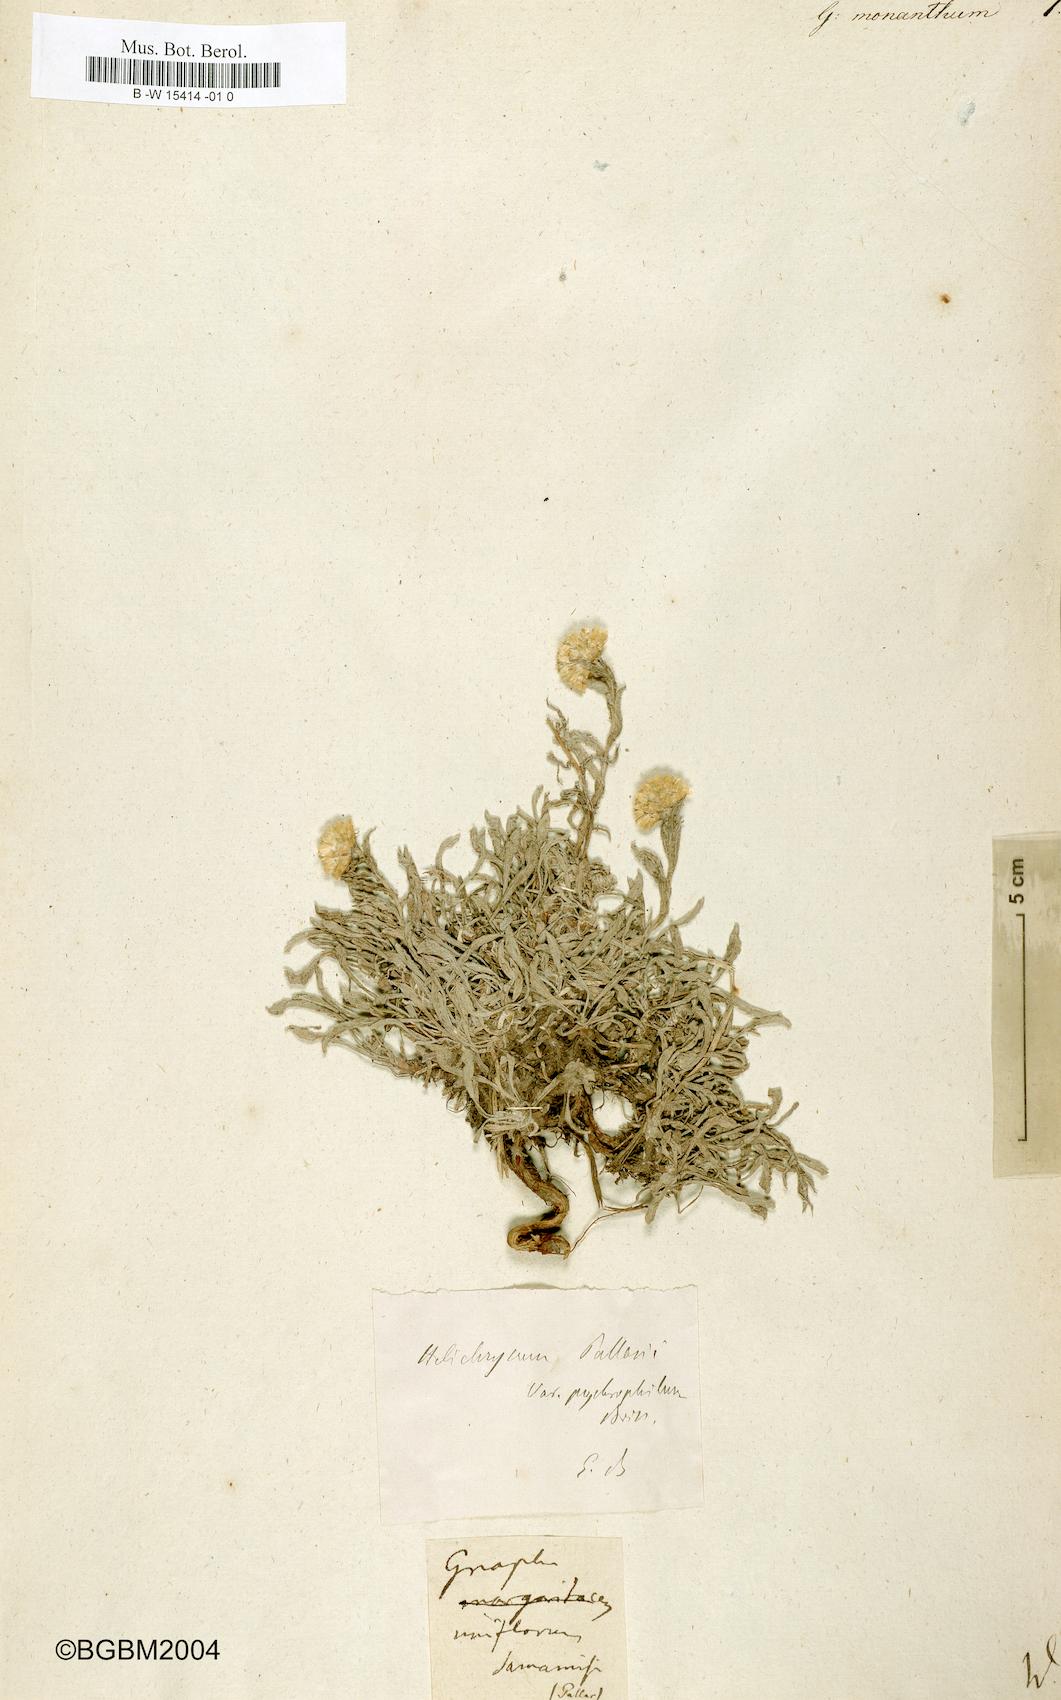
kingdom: Plantae
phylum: Tracheophyta
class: Magnoliopsida
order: Asterales
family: Asteraceae
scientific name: Asteraceae
